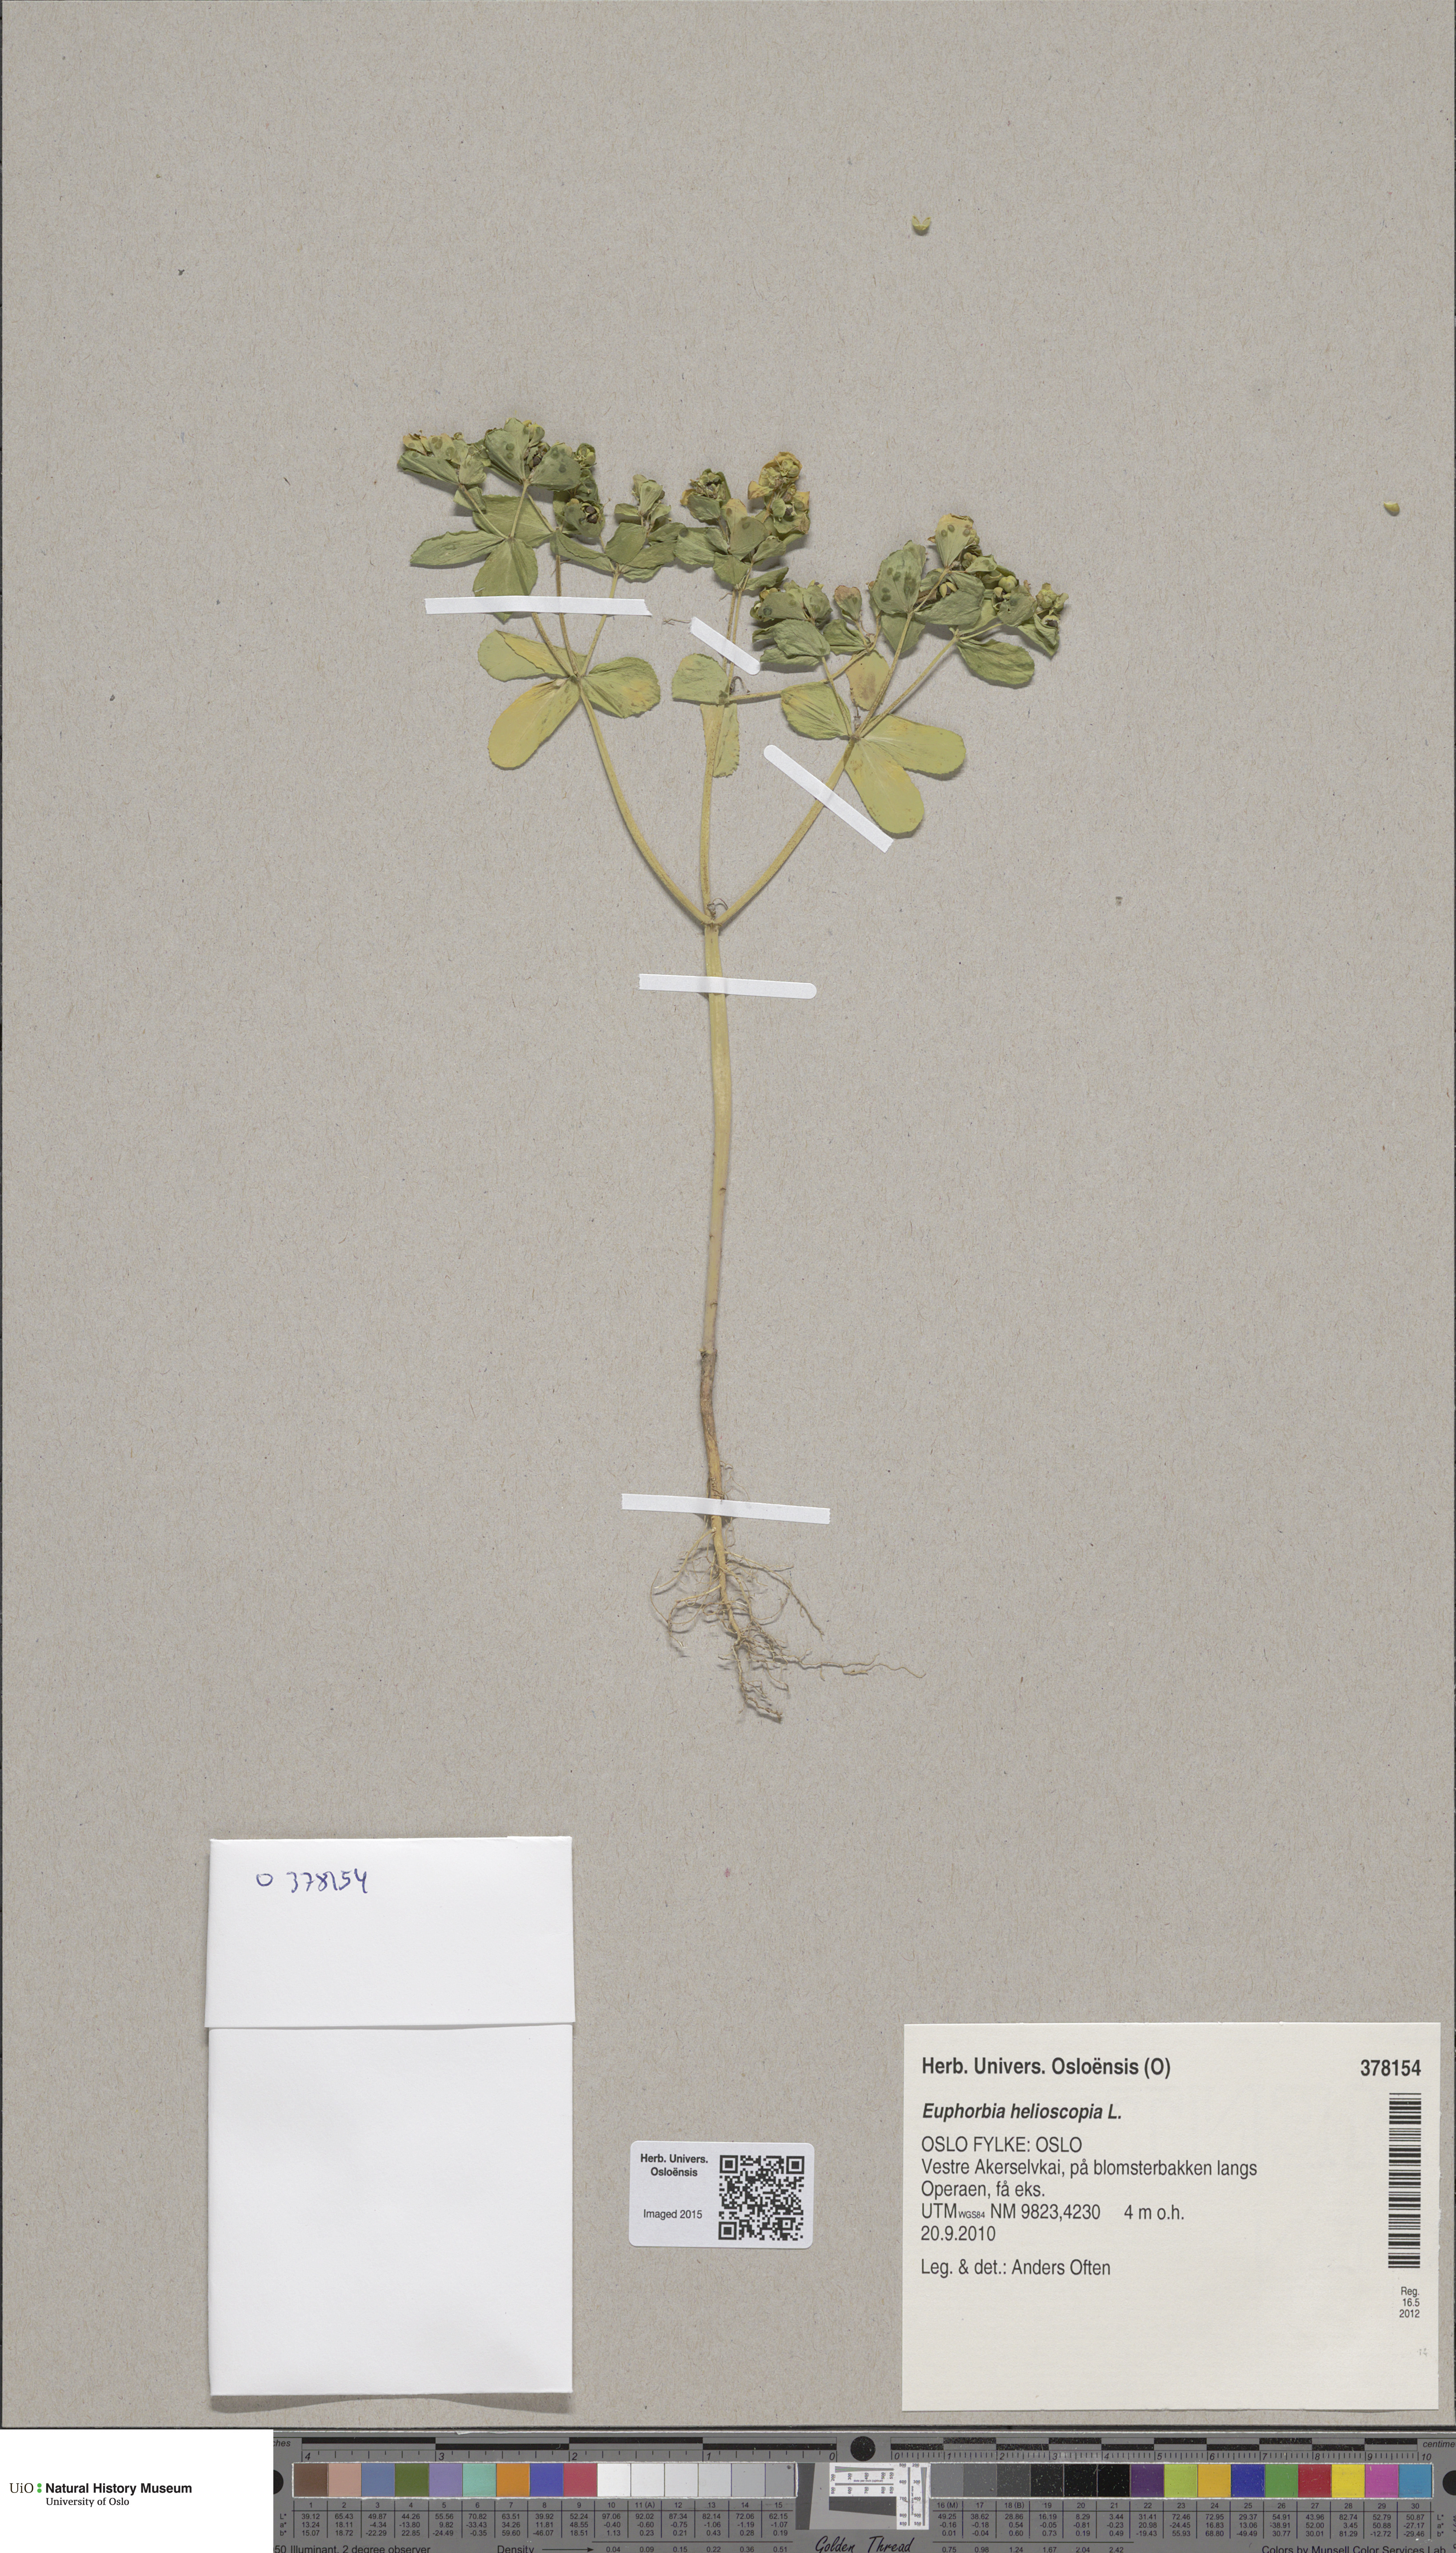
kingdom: Plantae
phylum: Tracheophyta
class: Magnoliopsida
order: Malpighiales
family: Euphorbiaceae
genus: Euphorbia
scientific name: Euphorbia helioscopia
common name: Sun spurge
